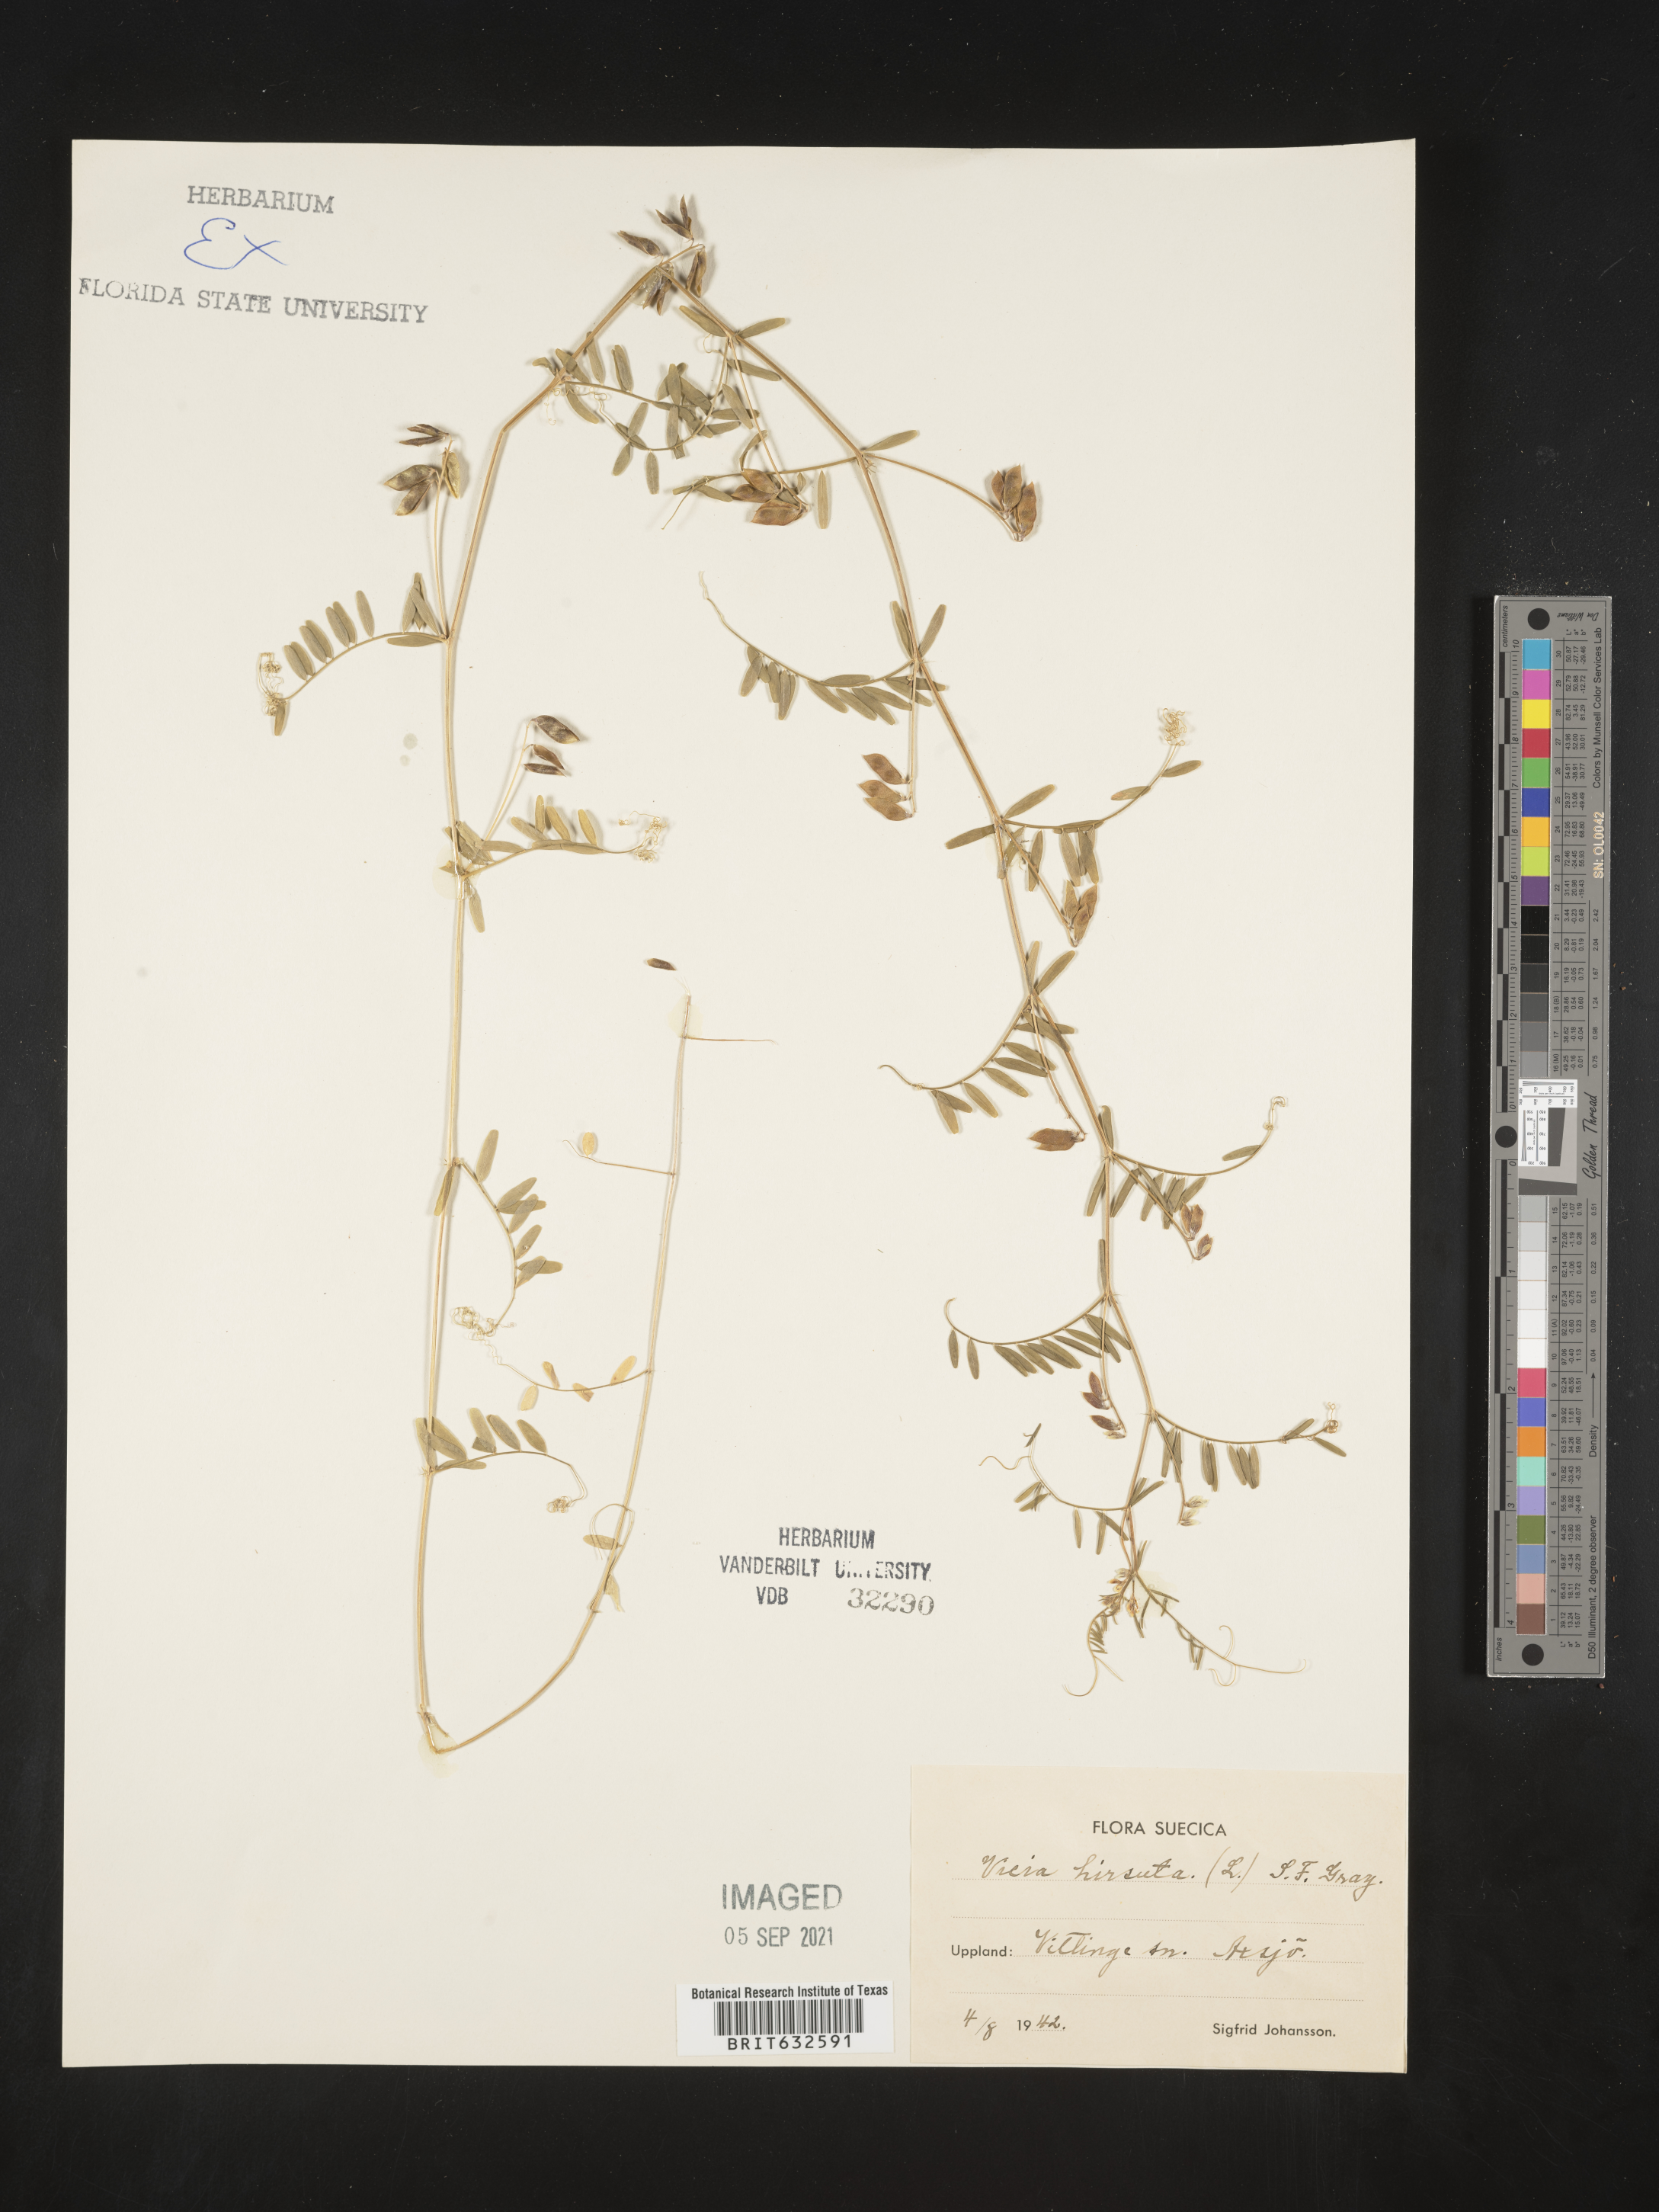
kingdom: Plantae
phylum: Tracheophyta
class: Magnoliopsida
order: Fabales
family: Fabaceae
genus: Vicia
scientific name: Vicia
